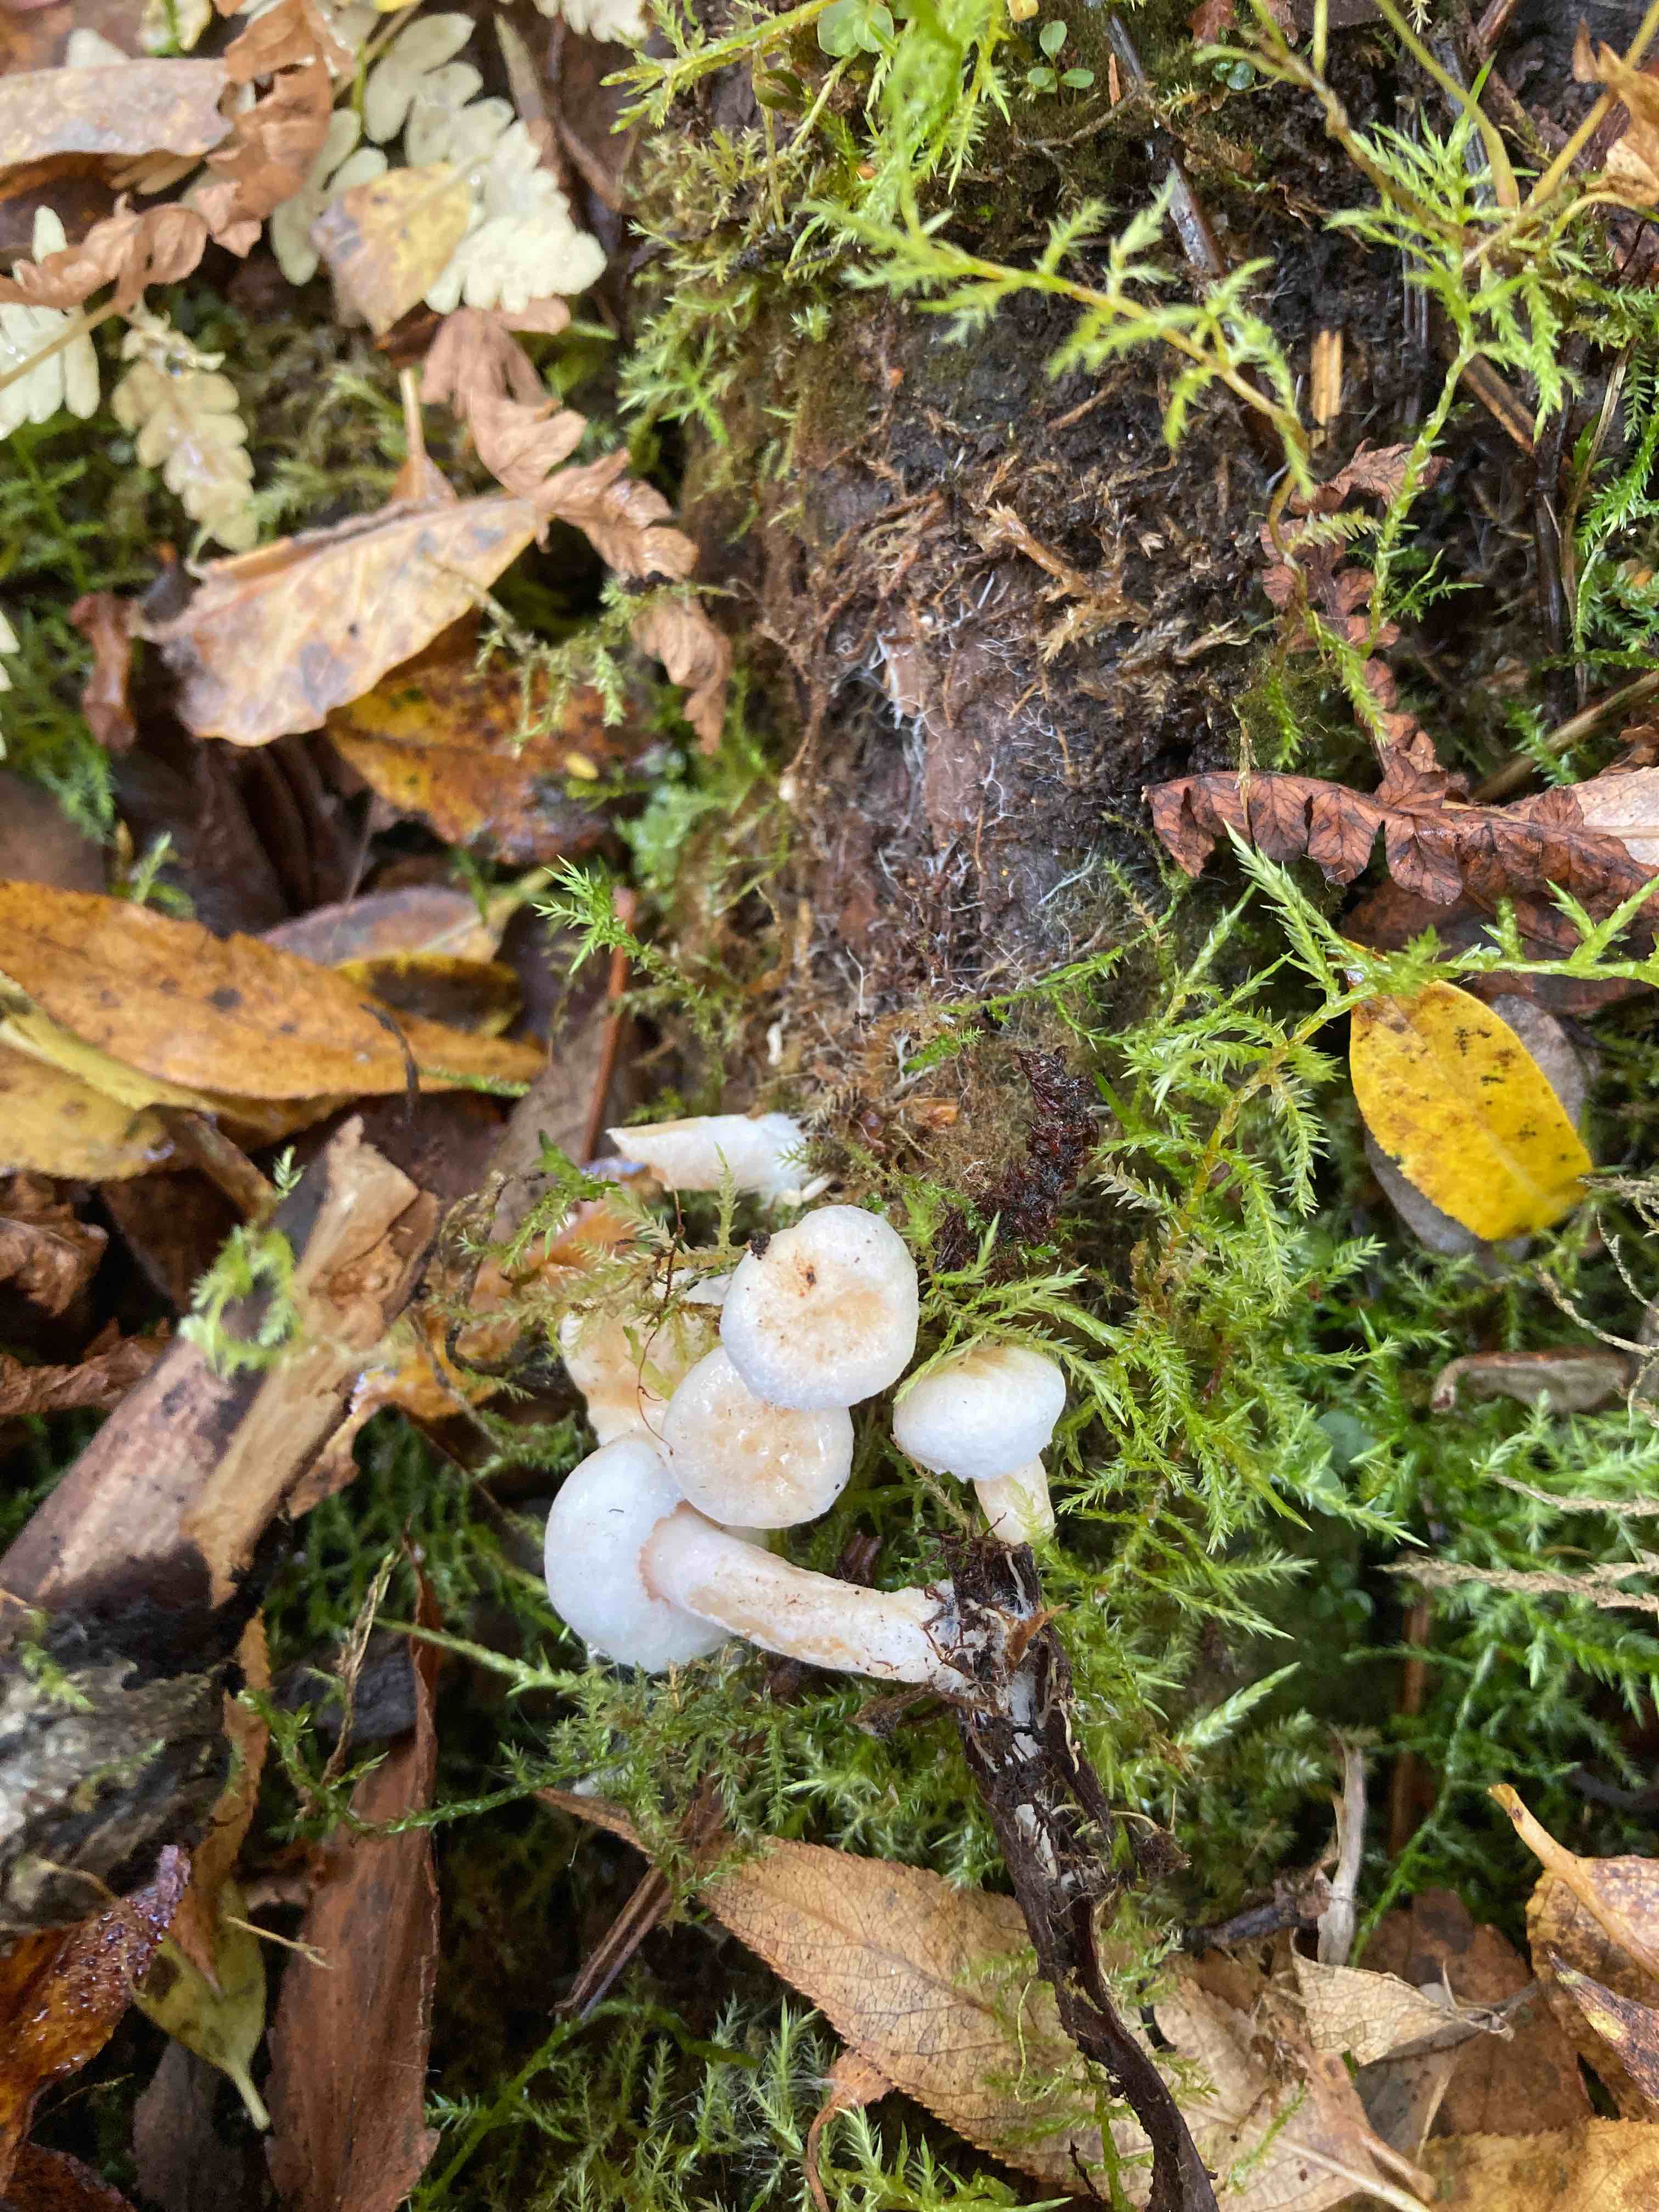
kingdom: Fungi
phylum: Basidiomycota
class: Agaricomycetes
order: Russulales
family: Russulaceae
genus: Lactarius
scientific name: Lactarius scoticus
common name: tørve-mælkehat
